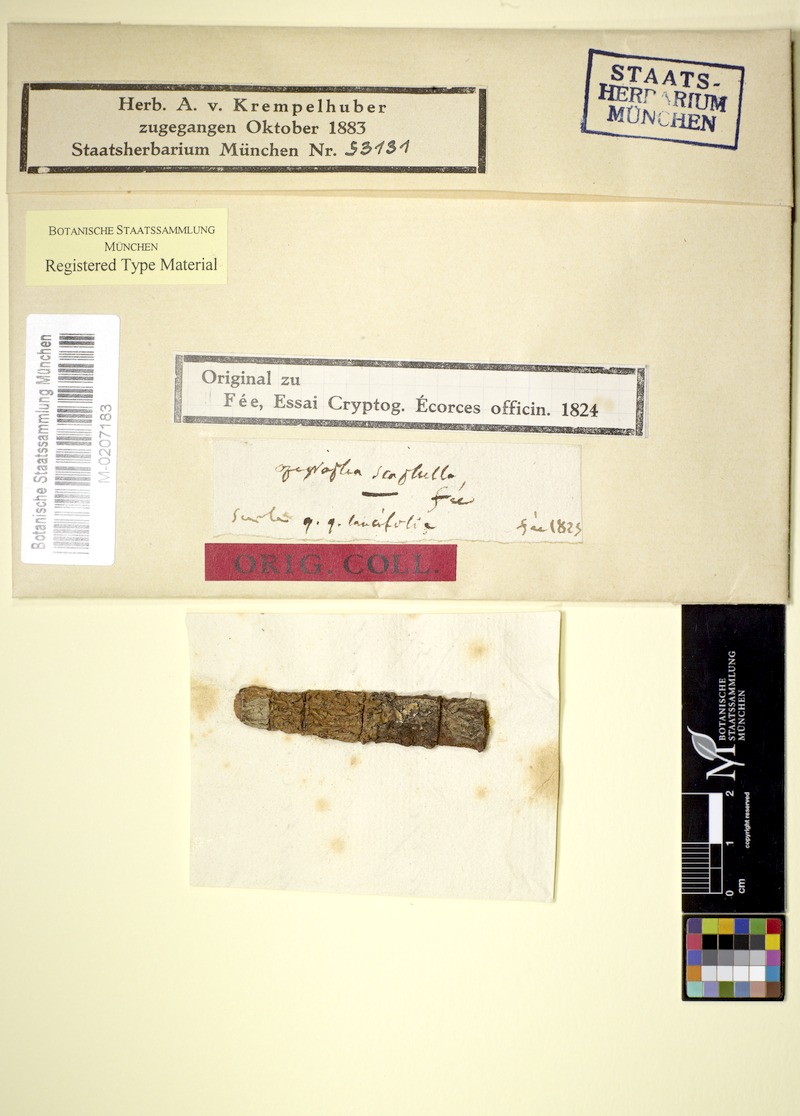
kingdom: Fungi
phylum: Ascomycota
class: Lecanoromycetes
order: Ostropales
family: Graphidaceae
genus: Allographa
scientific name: Allographa cinerea
